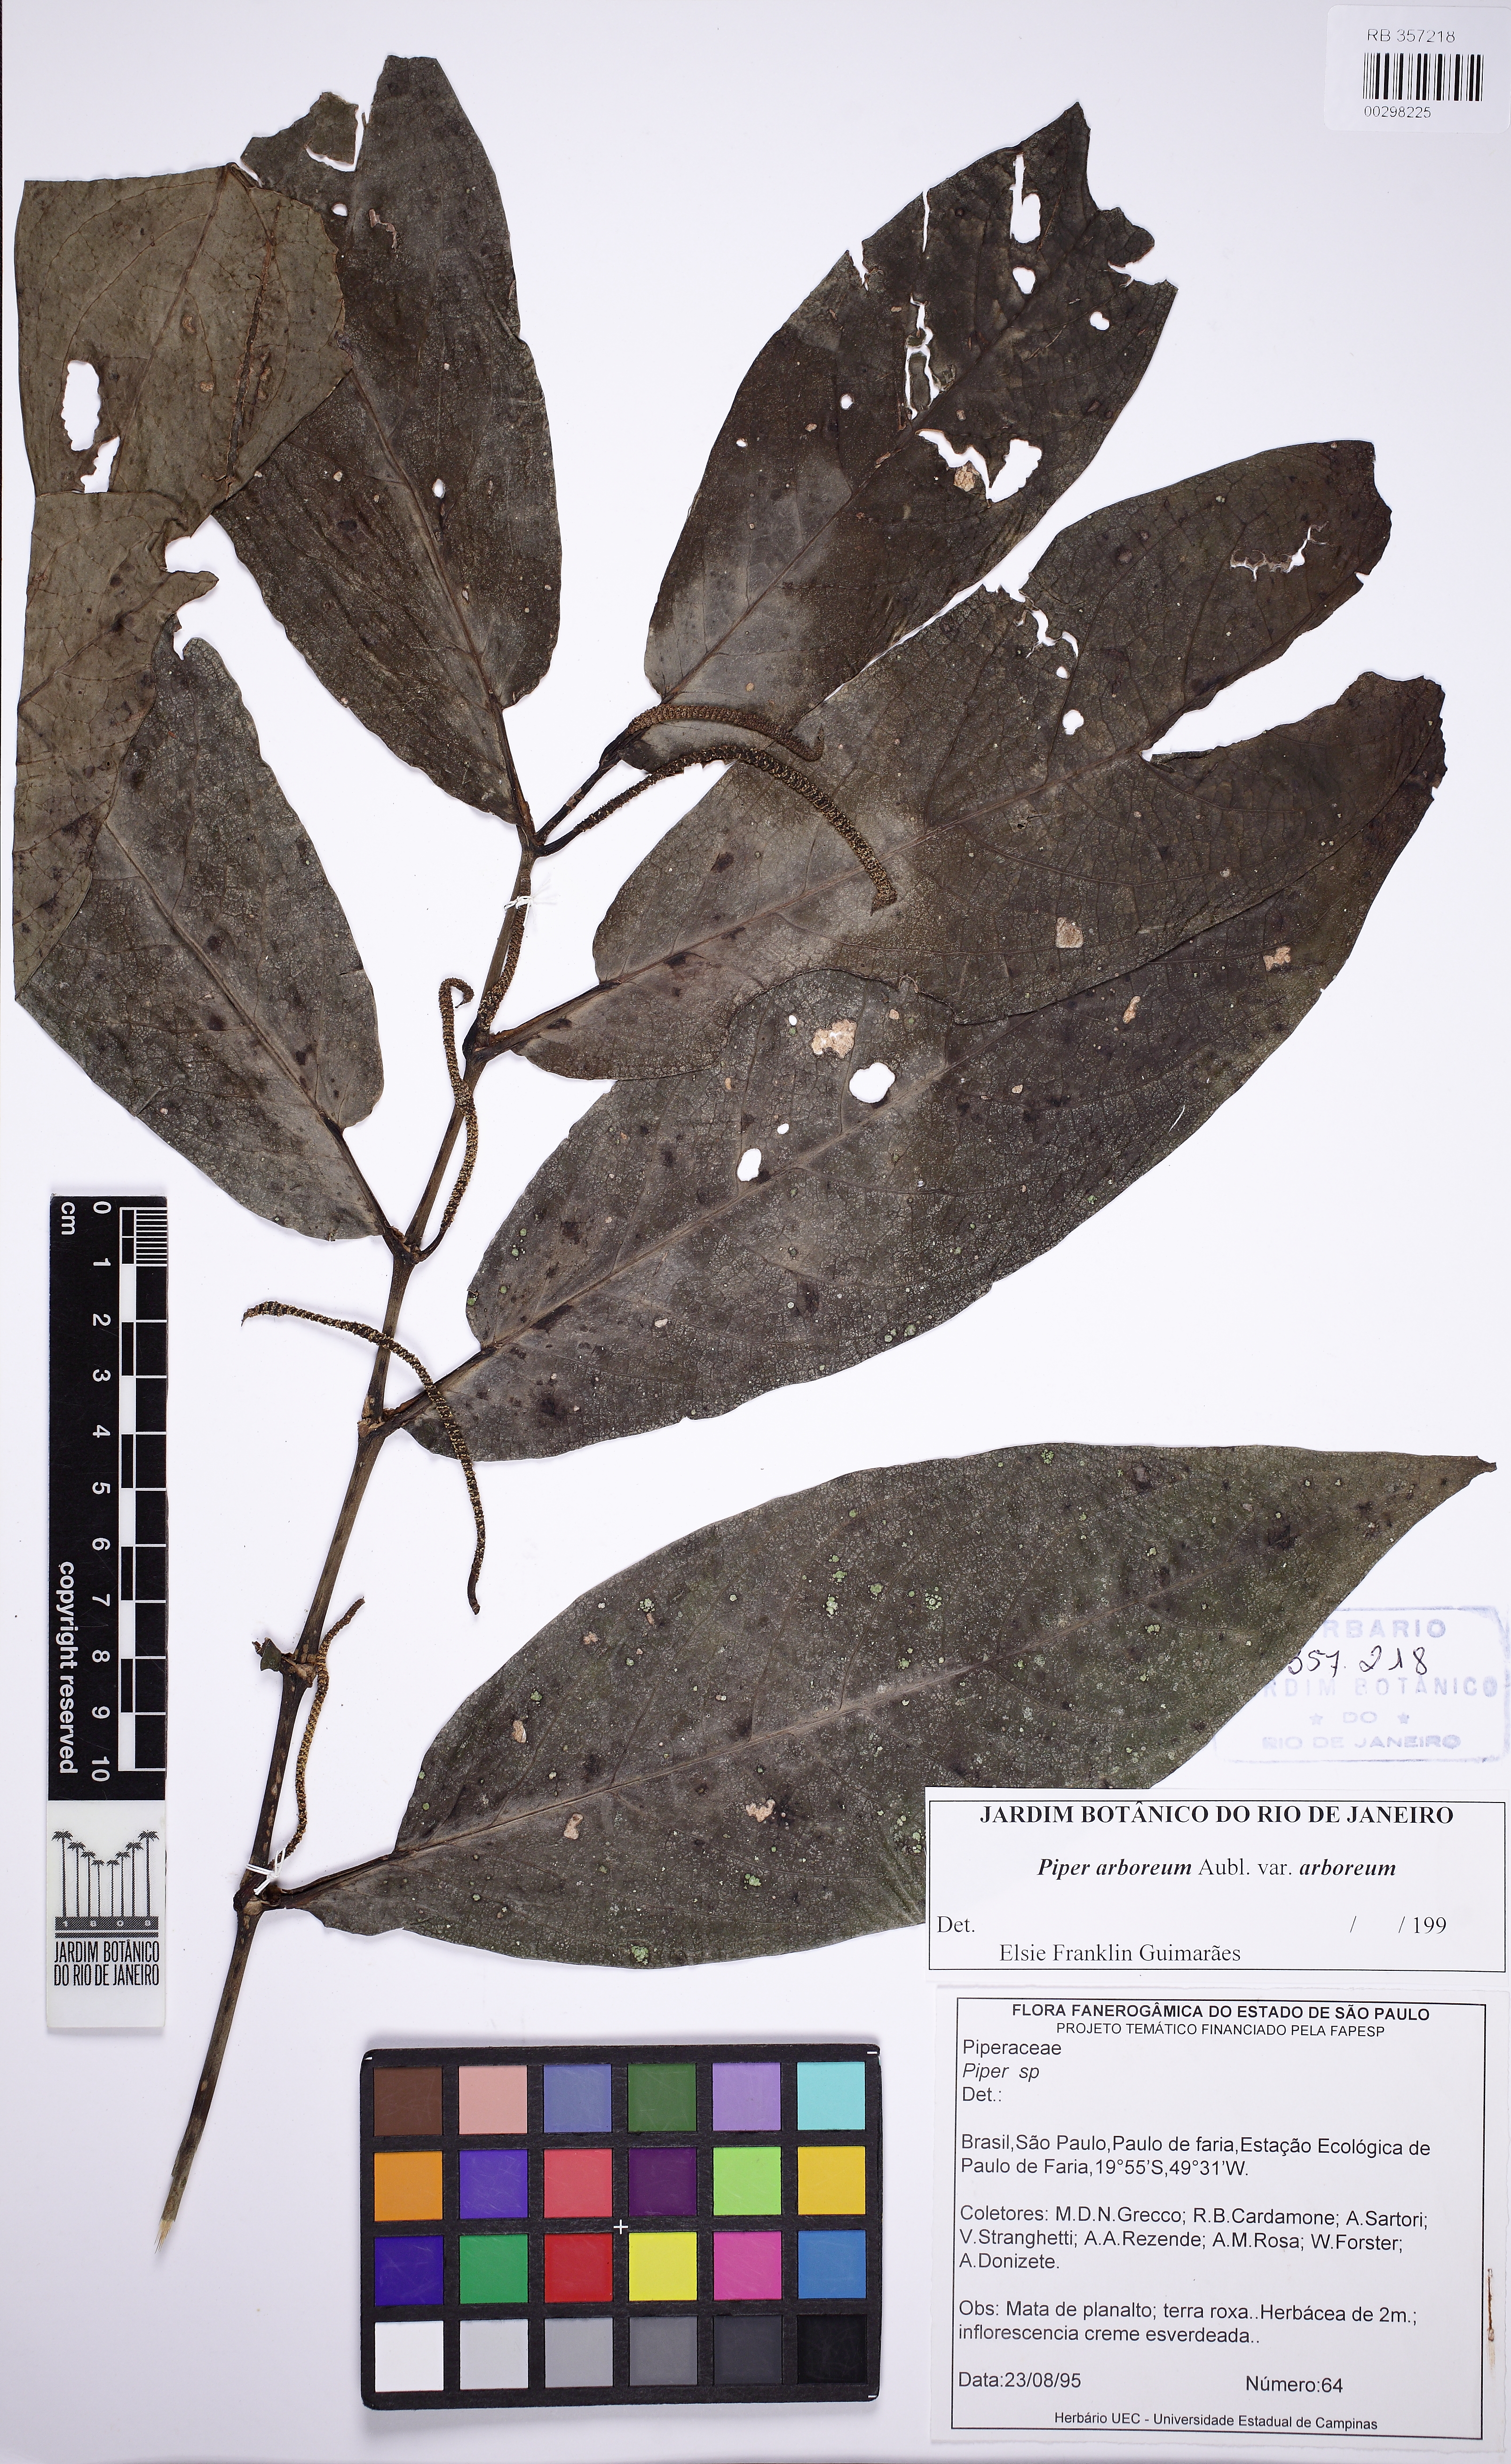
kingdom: Plantae
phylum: Tracheophyta
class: Magnoliopsida
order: Piperales
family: Piperaceae
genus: Piper
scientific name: Piper arboreum
